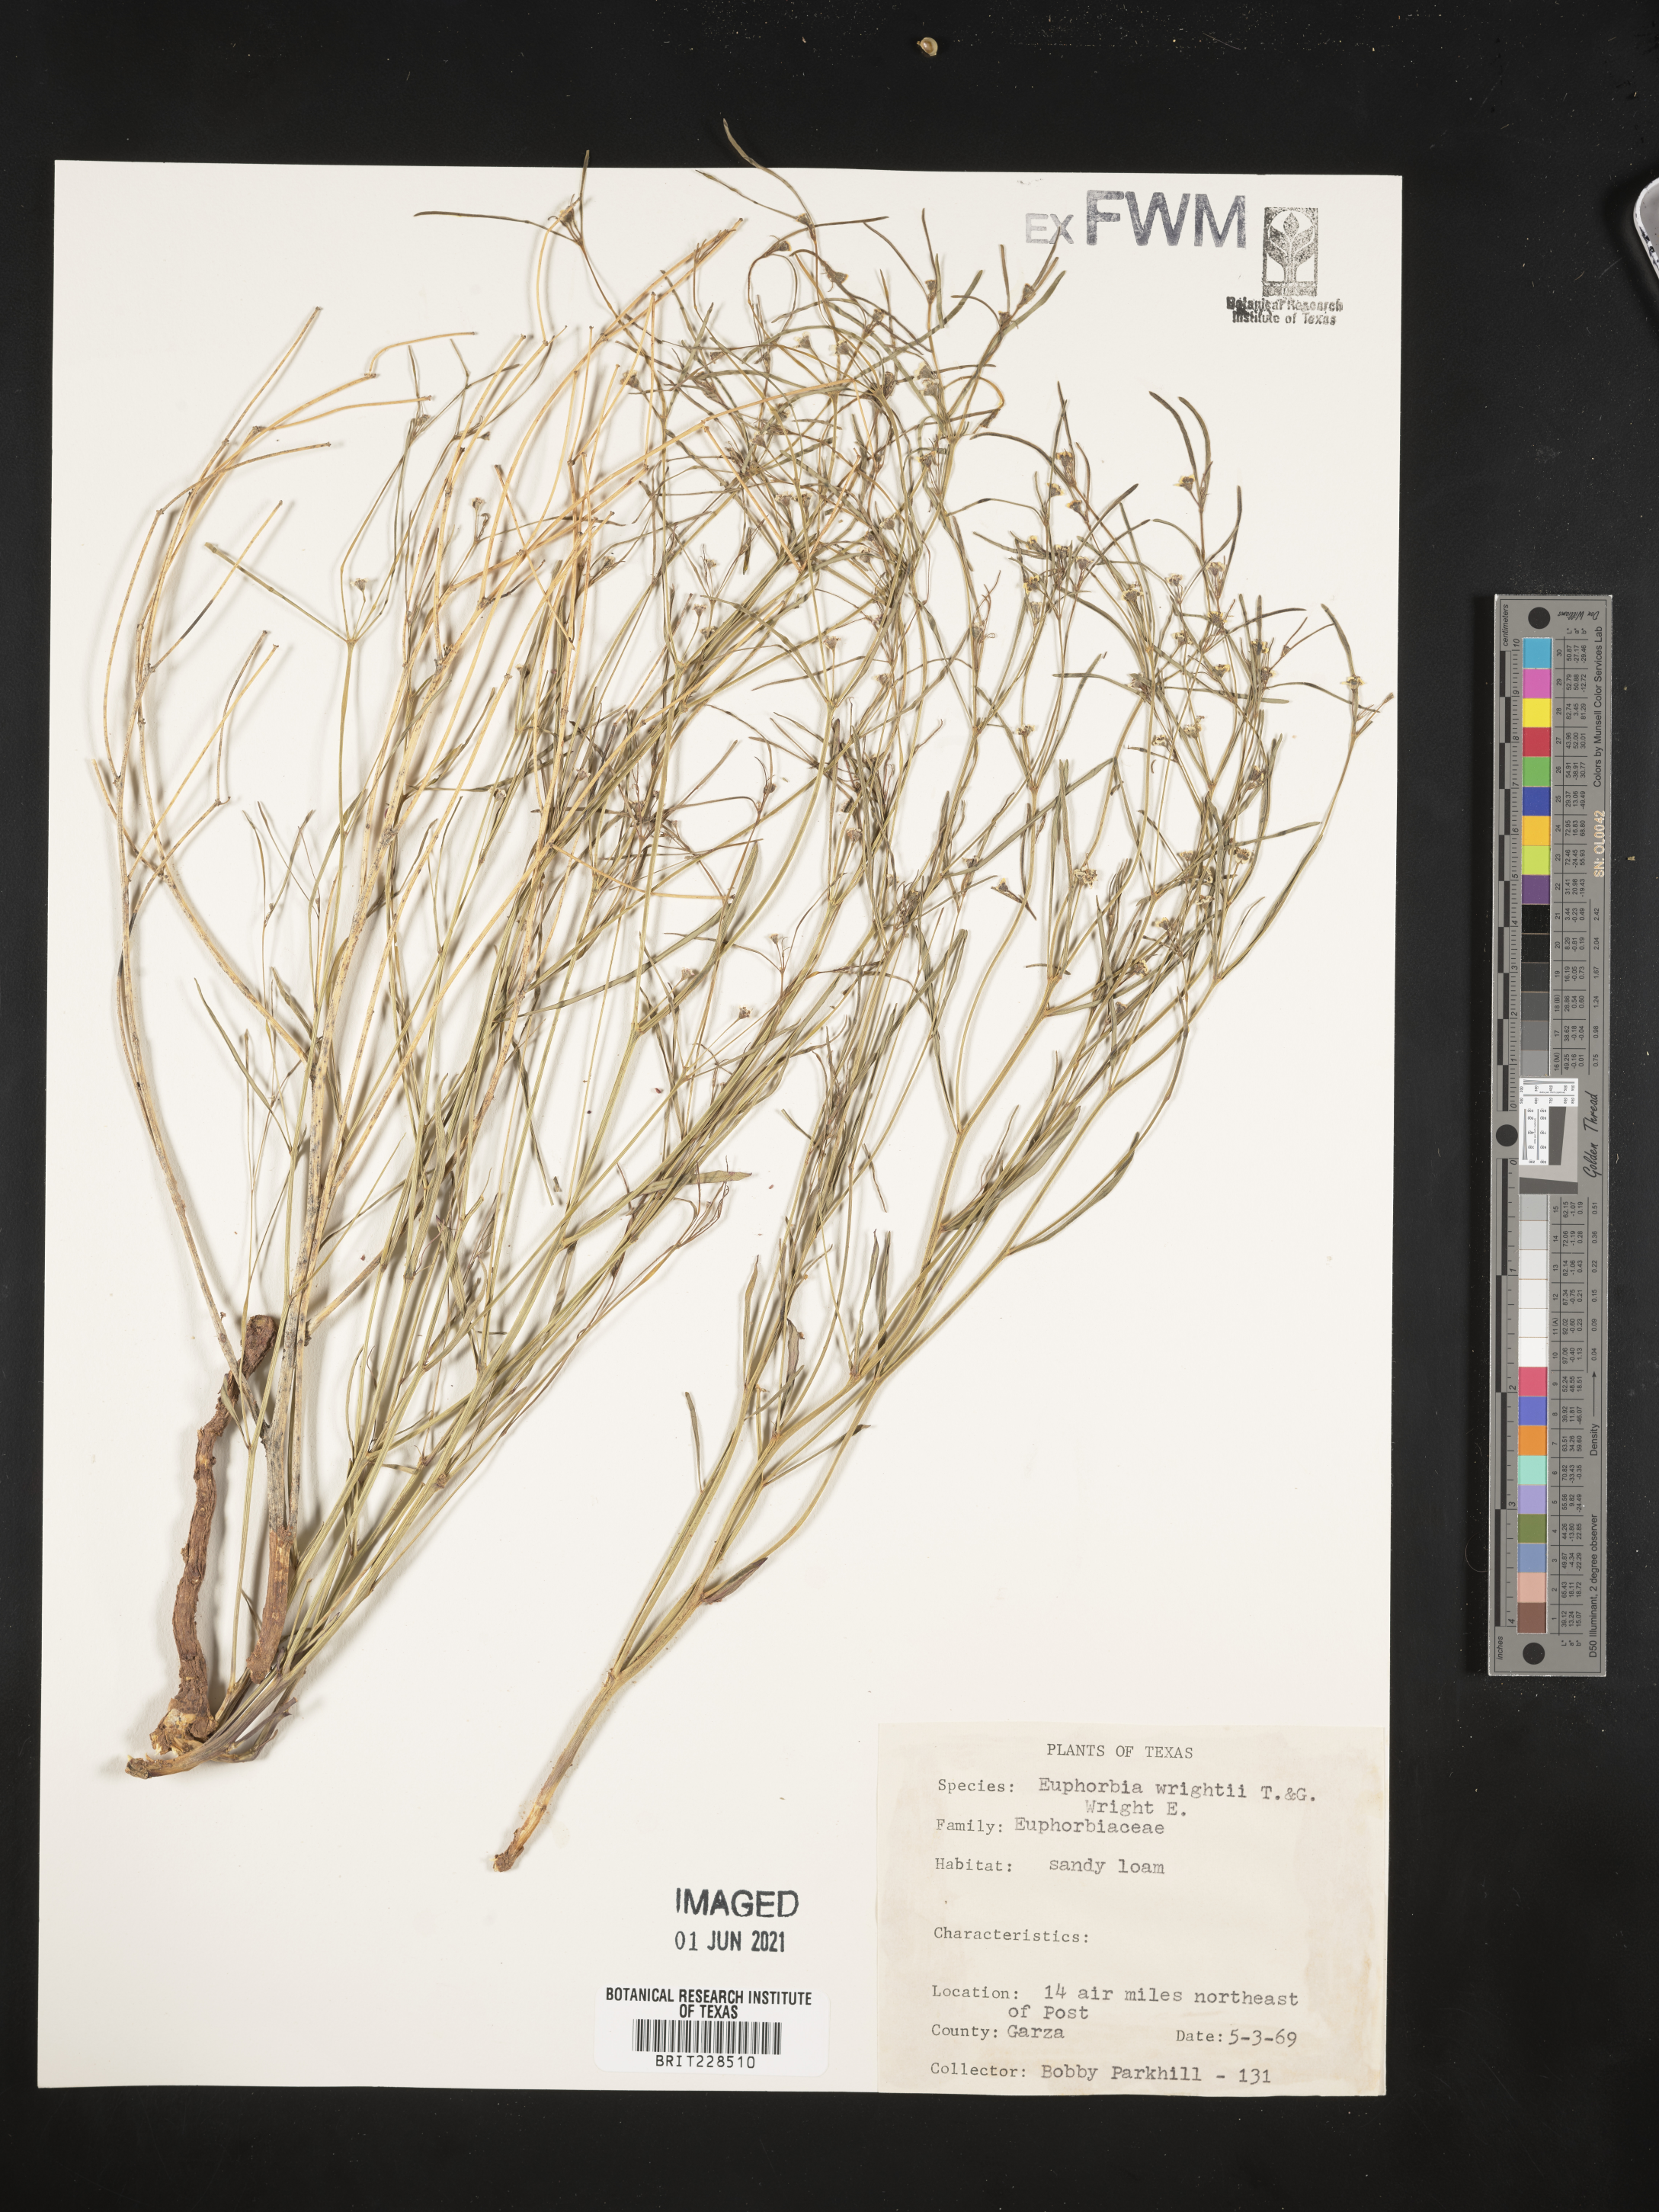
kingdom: Plantae
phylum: Tracheophyta
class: Magnoliopsida
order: Malpighiales
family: Euphorbiaceae
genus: Euphorbia
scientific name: Euphorbia wrightii
